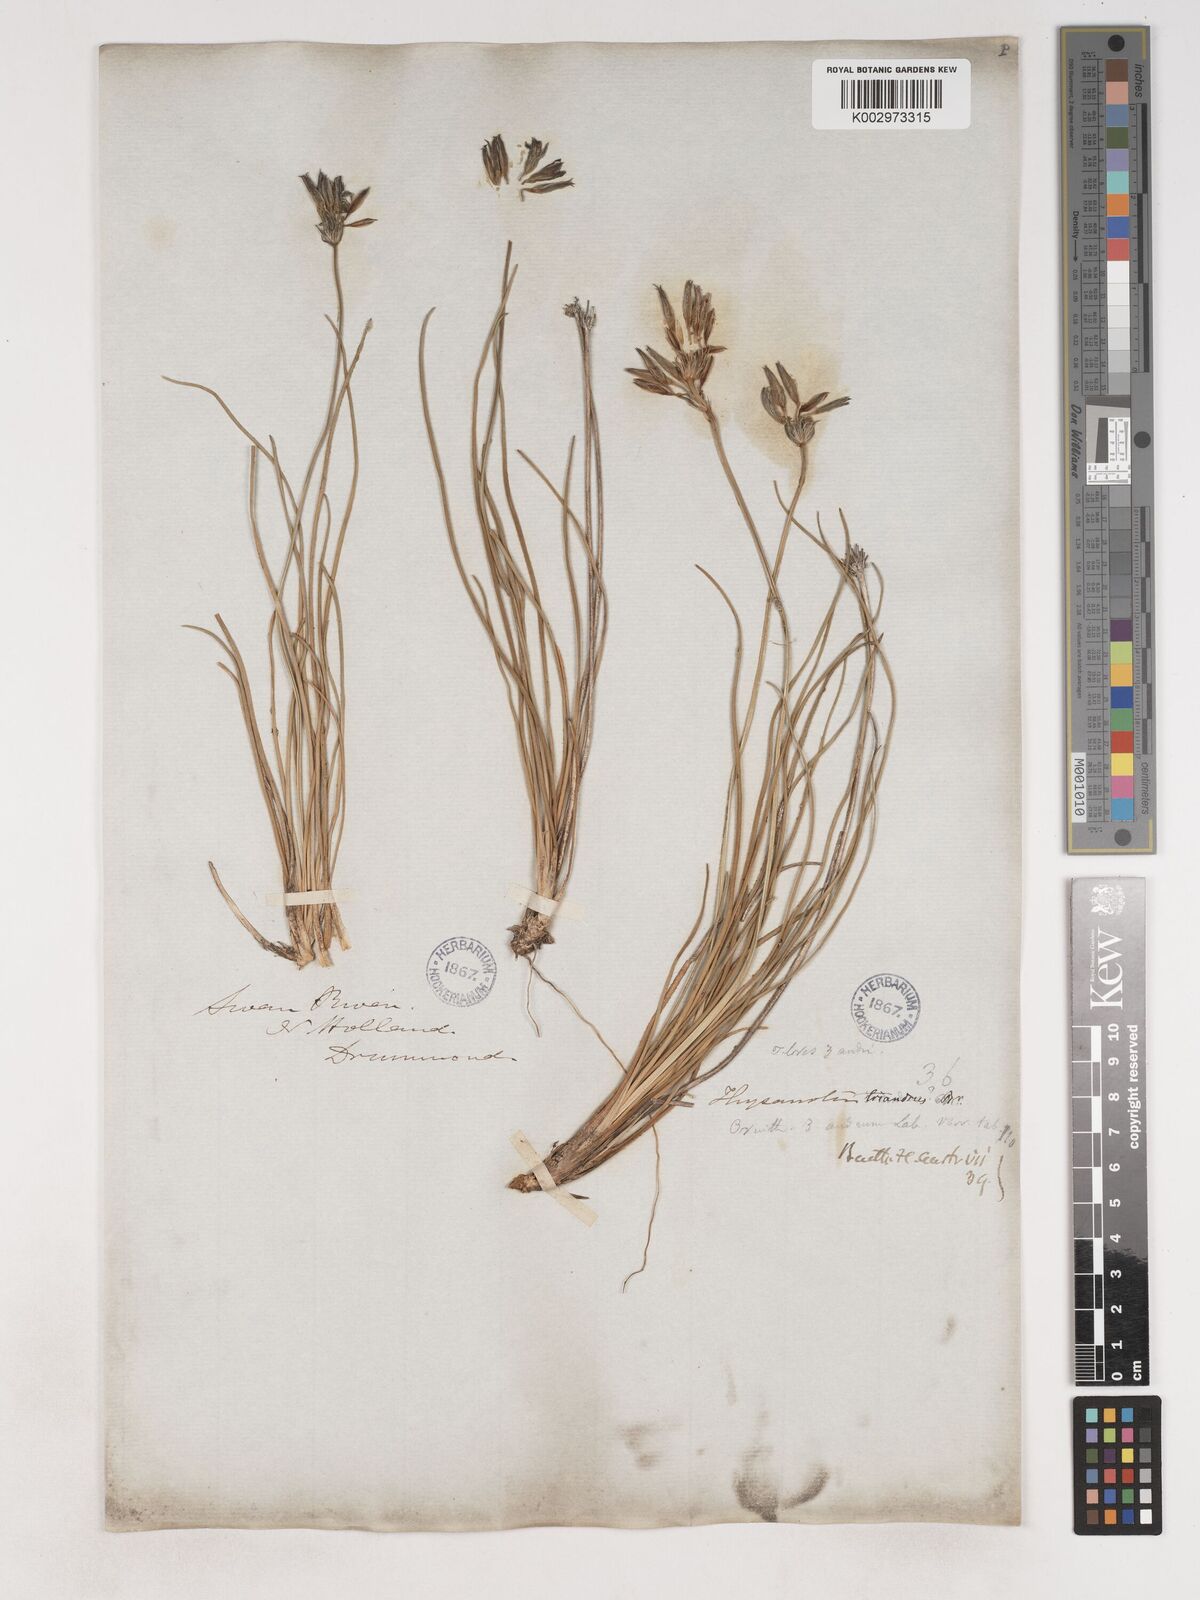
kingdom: Plantae
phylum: Tracheophyta
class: Liliopsida
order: Asparagales
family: Asparagaceae
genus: Thysanotus
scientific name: Thysanotus triandrus
